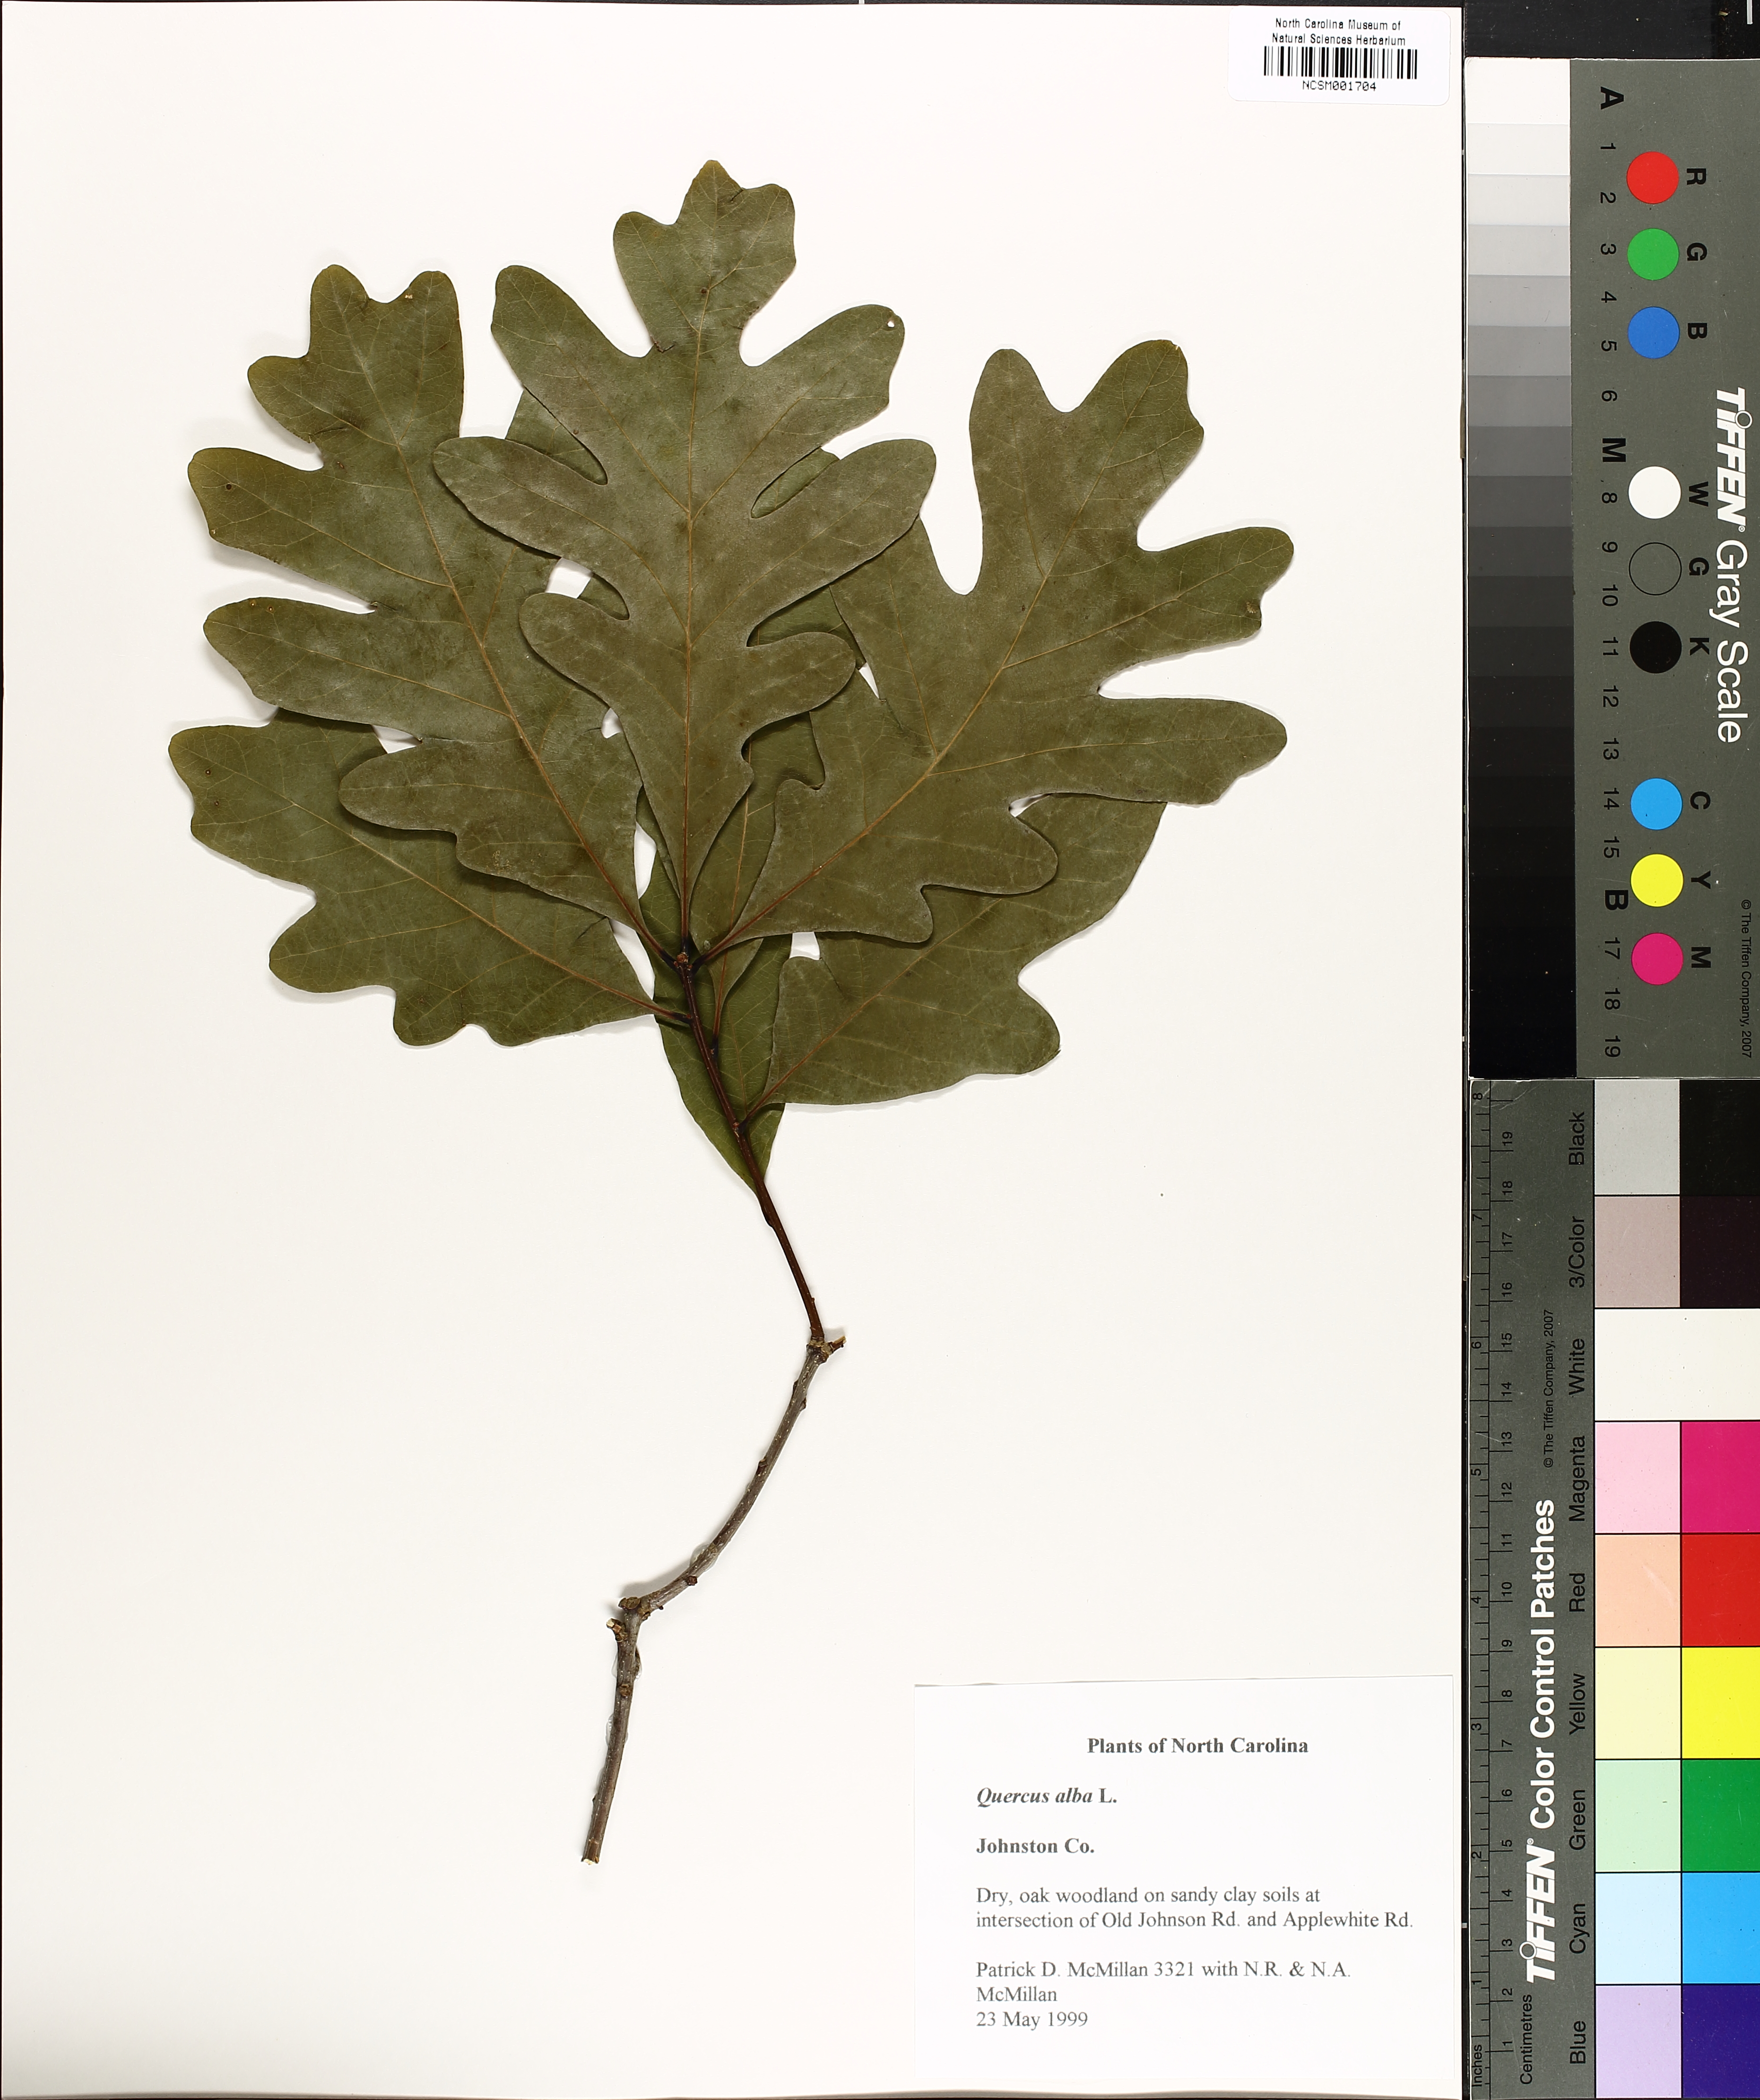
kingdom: Plantae
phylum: Tracheophyta
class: Magnoliopsida
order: Fagales
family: Fagaceae
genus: Quercus
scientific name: Quercus alba
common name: White oak
